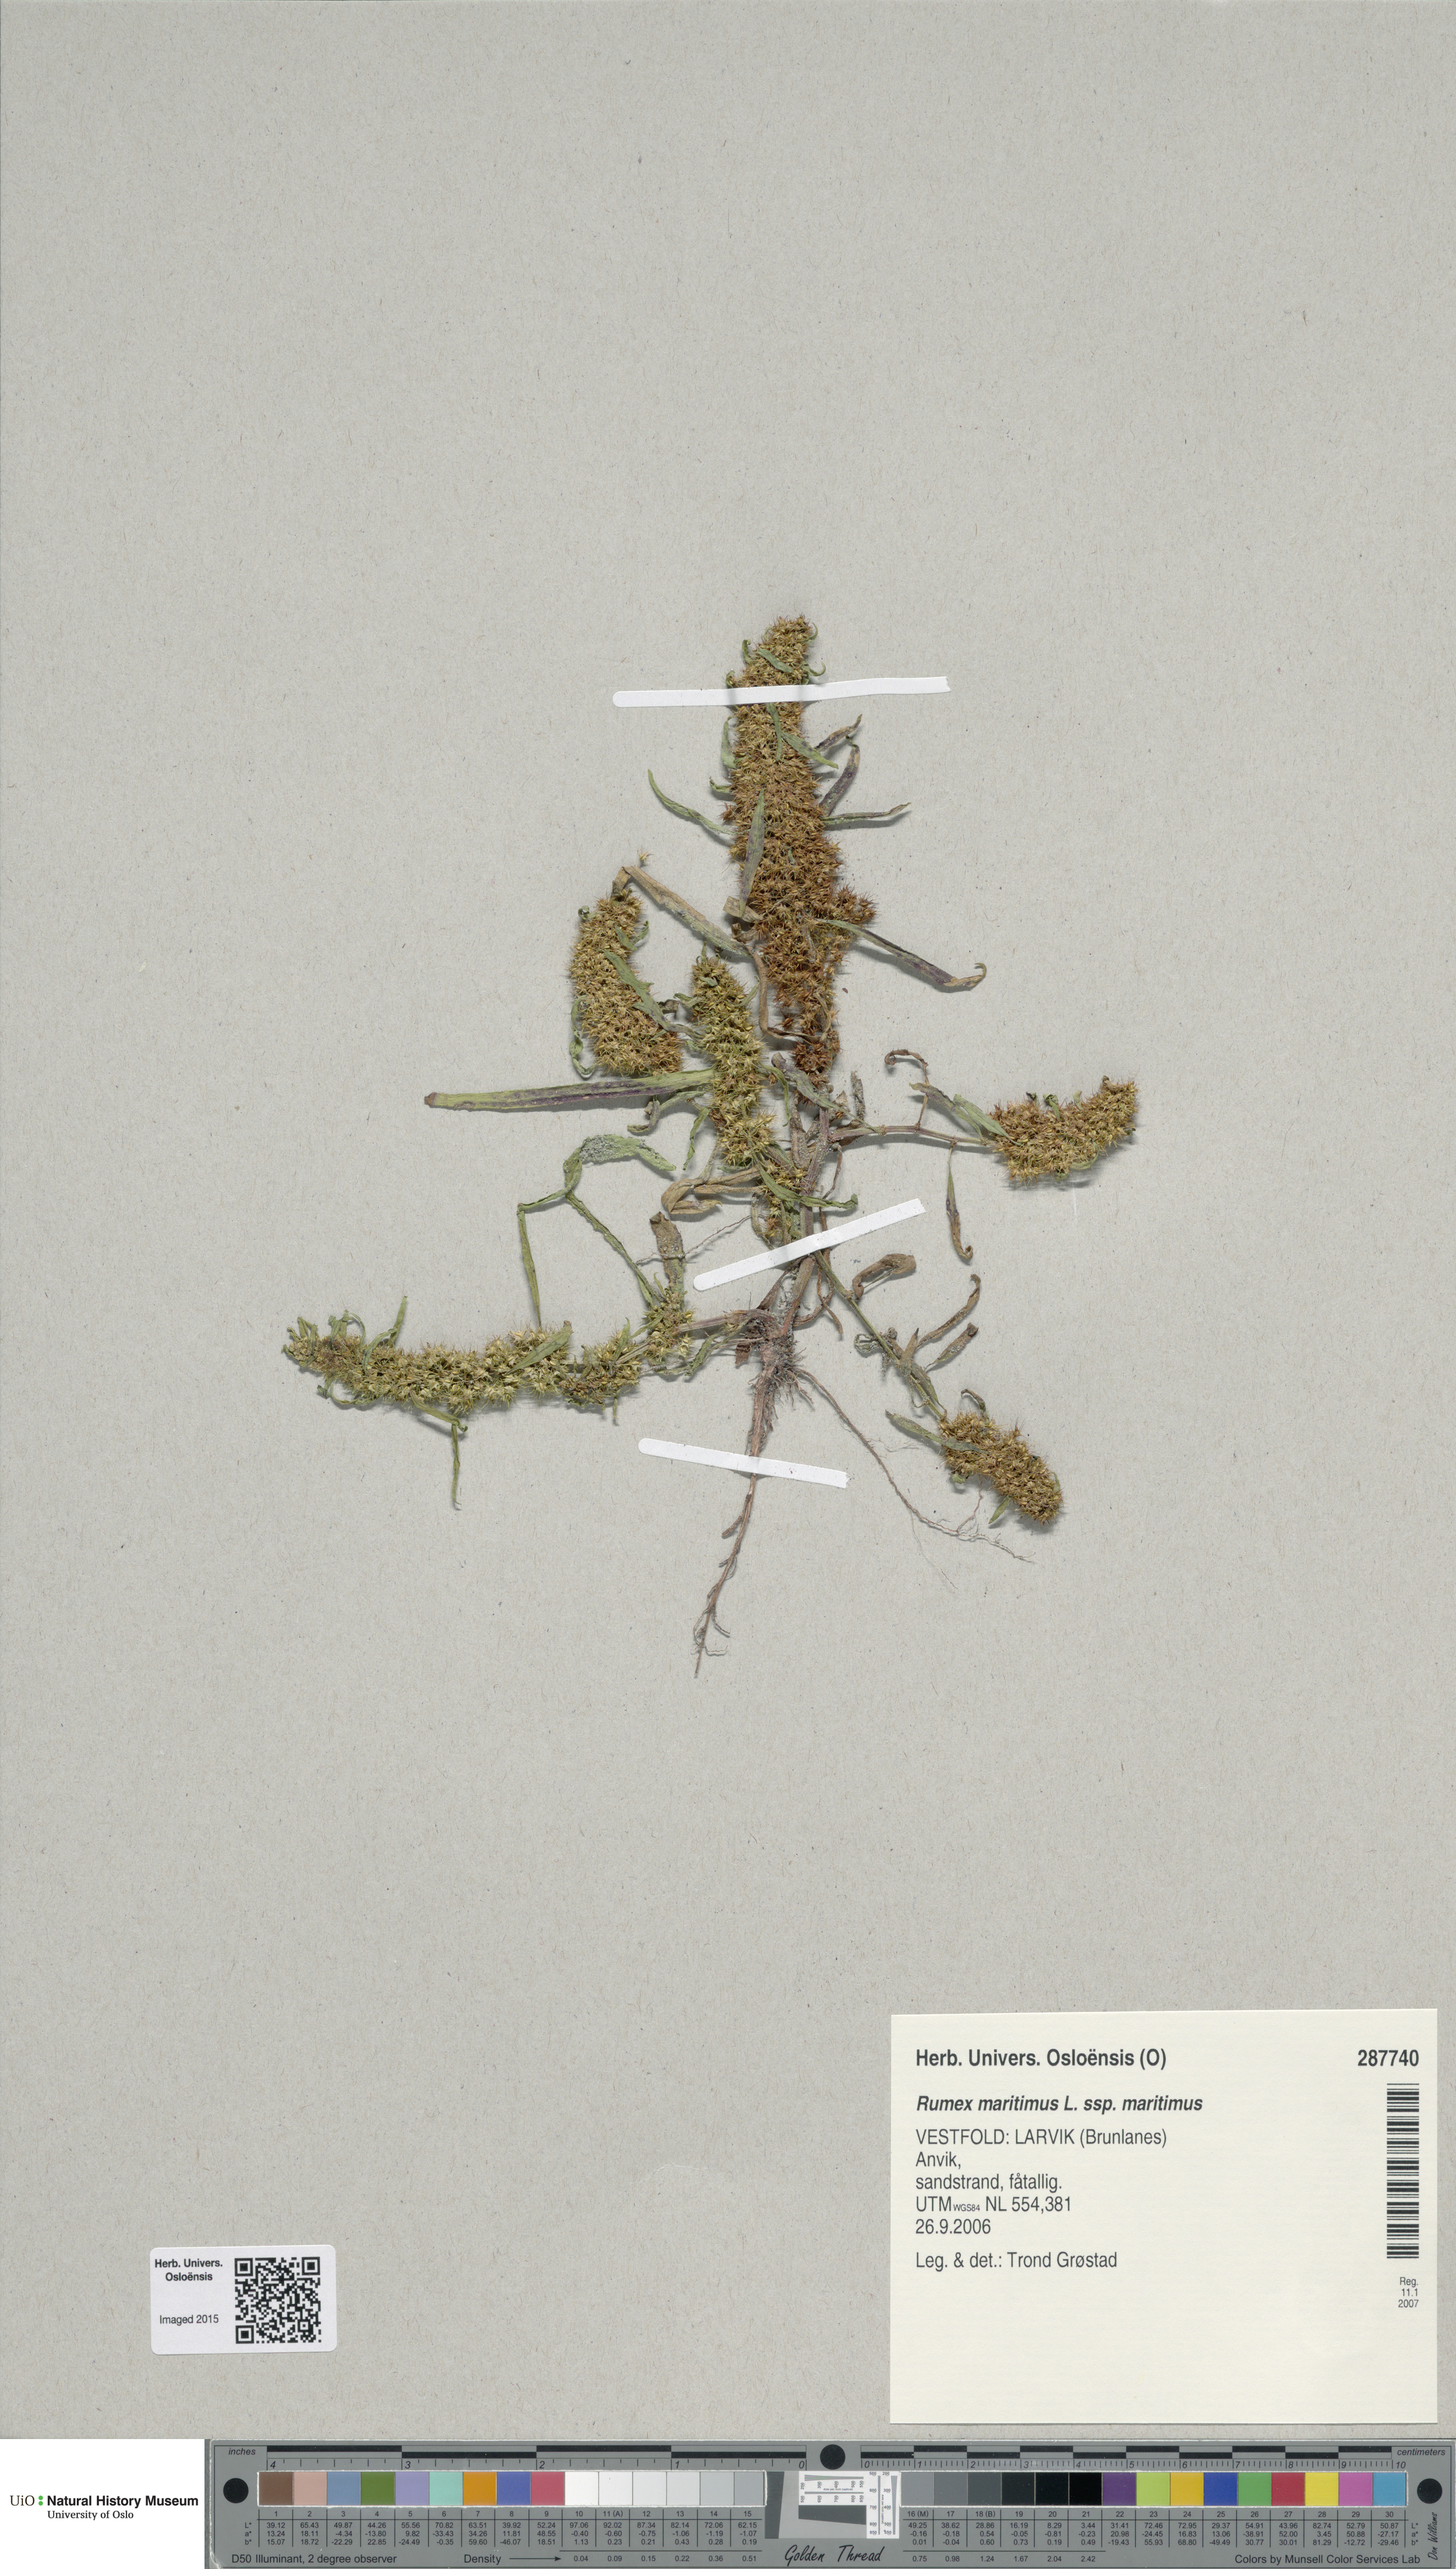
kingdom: Plantae
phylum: Tracheophyta
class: Magnoliopsida
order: Caryophyllales
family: Polygonaceae
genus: Rumex
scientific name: Rumex maritimus
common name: Golden dock
